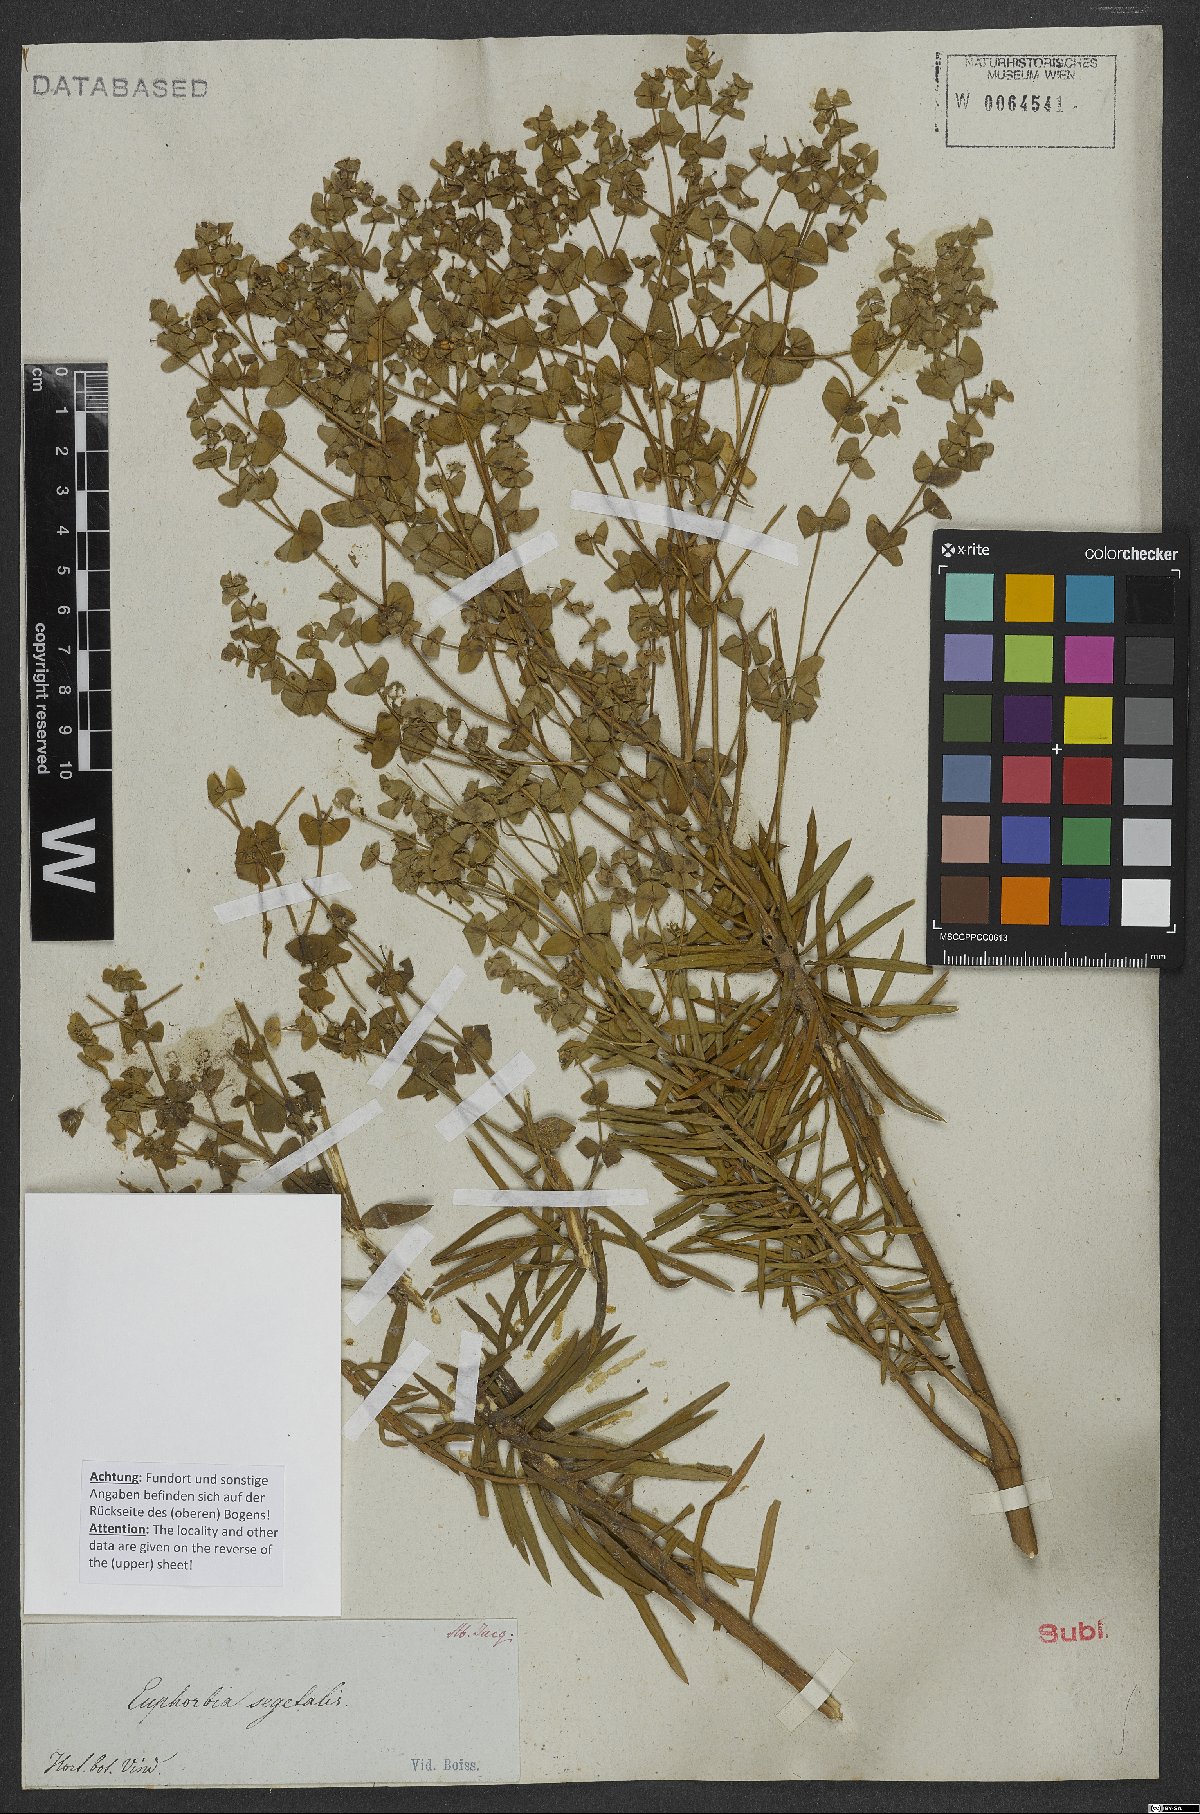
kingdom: Plantae
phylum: Tracheophyta
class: Magnoliopsida
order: Malpighiales
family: Euphorbiaceae
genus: Euphorbia
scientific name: Euphorbia segetalis
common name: Corn spurge
